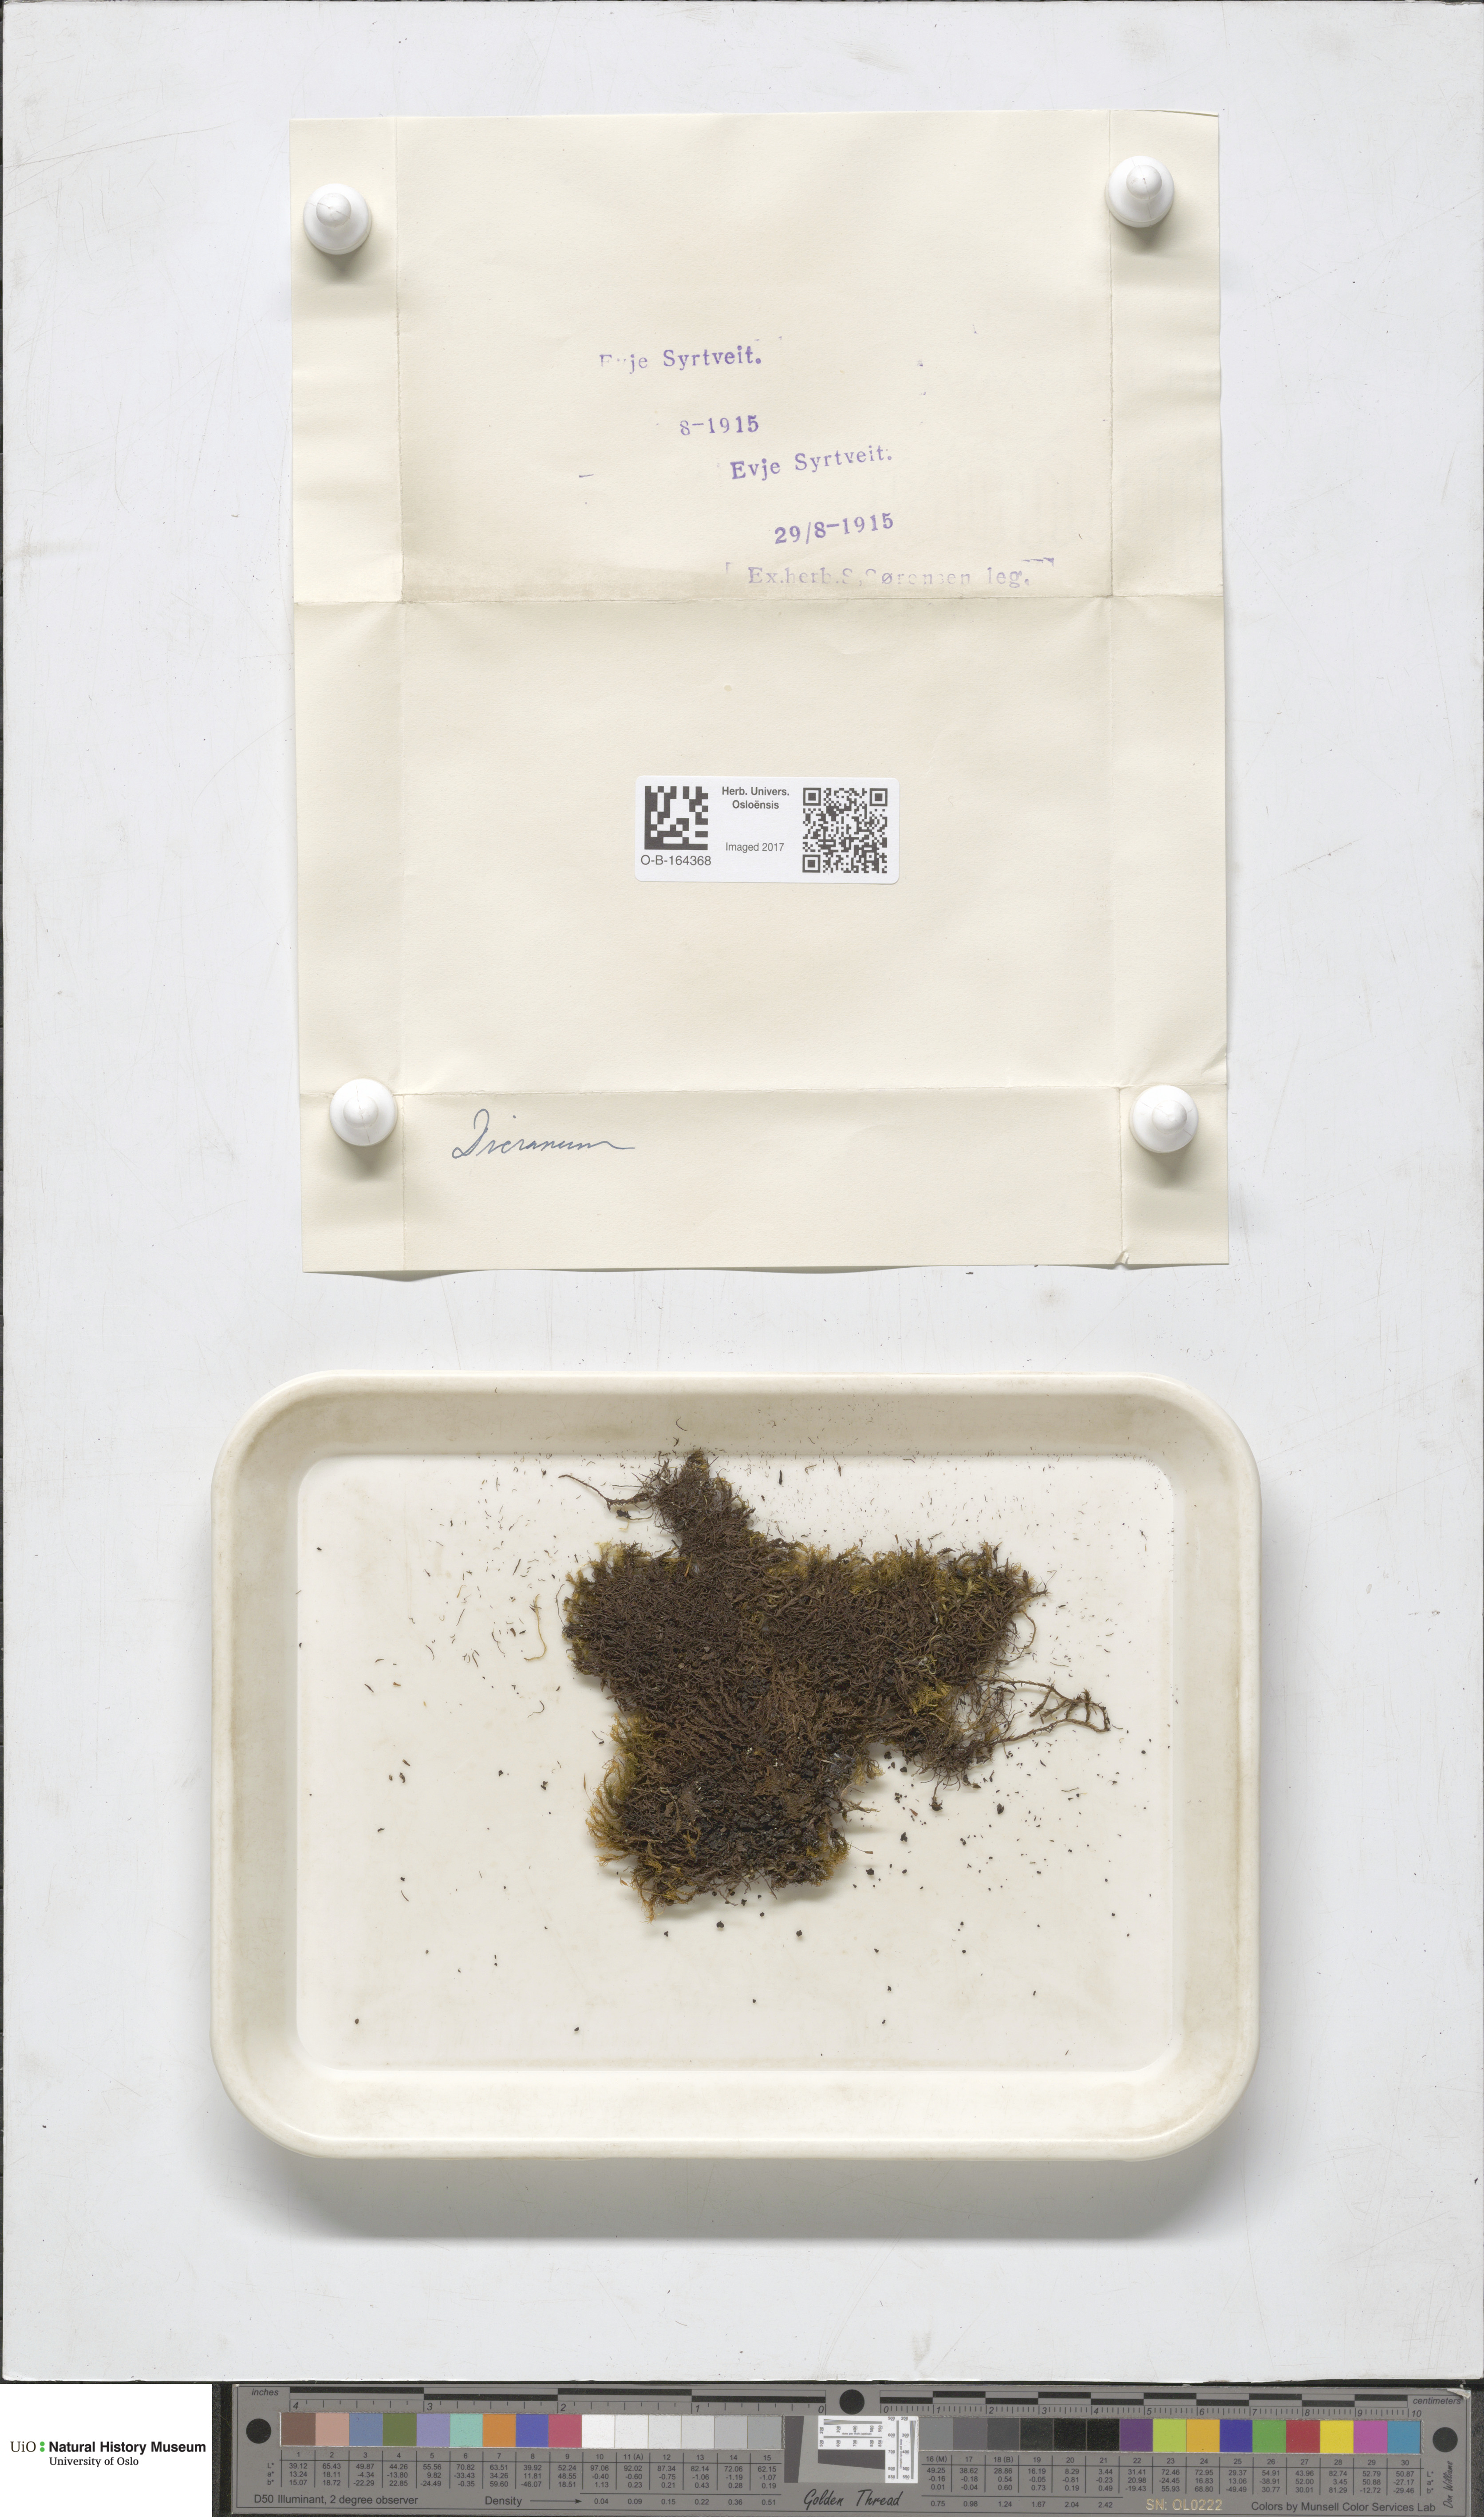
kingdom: Plantae
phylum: Bryophyta
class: Bryopsida
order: Dicranales
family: Dicranaceae
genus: Dicranum
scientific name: Dicranum
